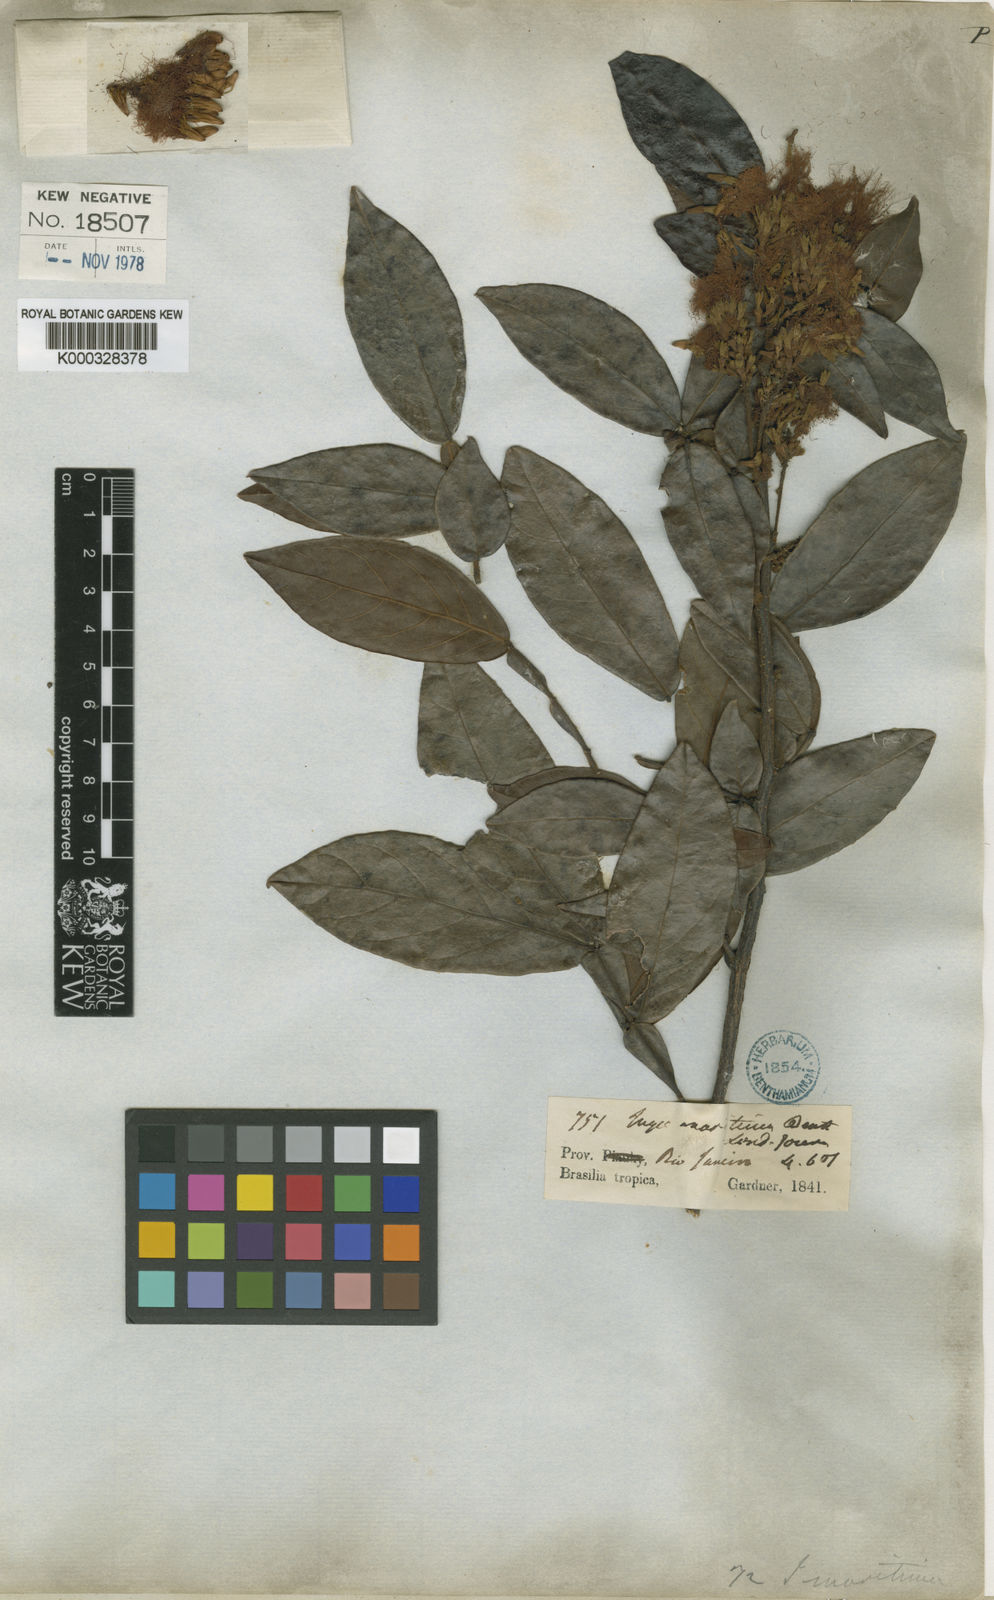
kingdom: Plantae
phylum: Tracheophyta
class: Magnoliopsida
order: Fabales
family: Fabaceae
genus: Inga
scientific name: Inga maritima
